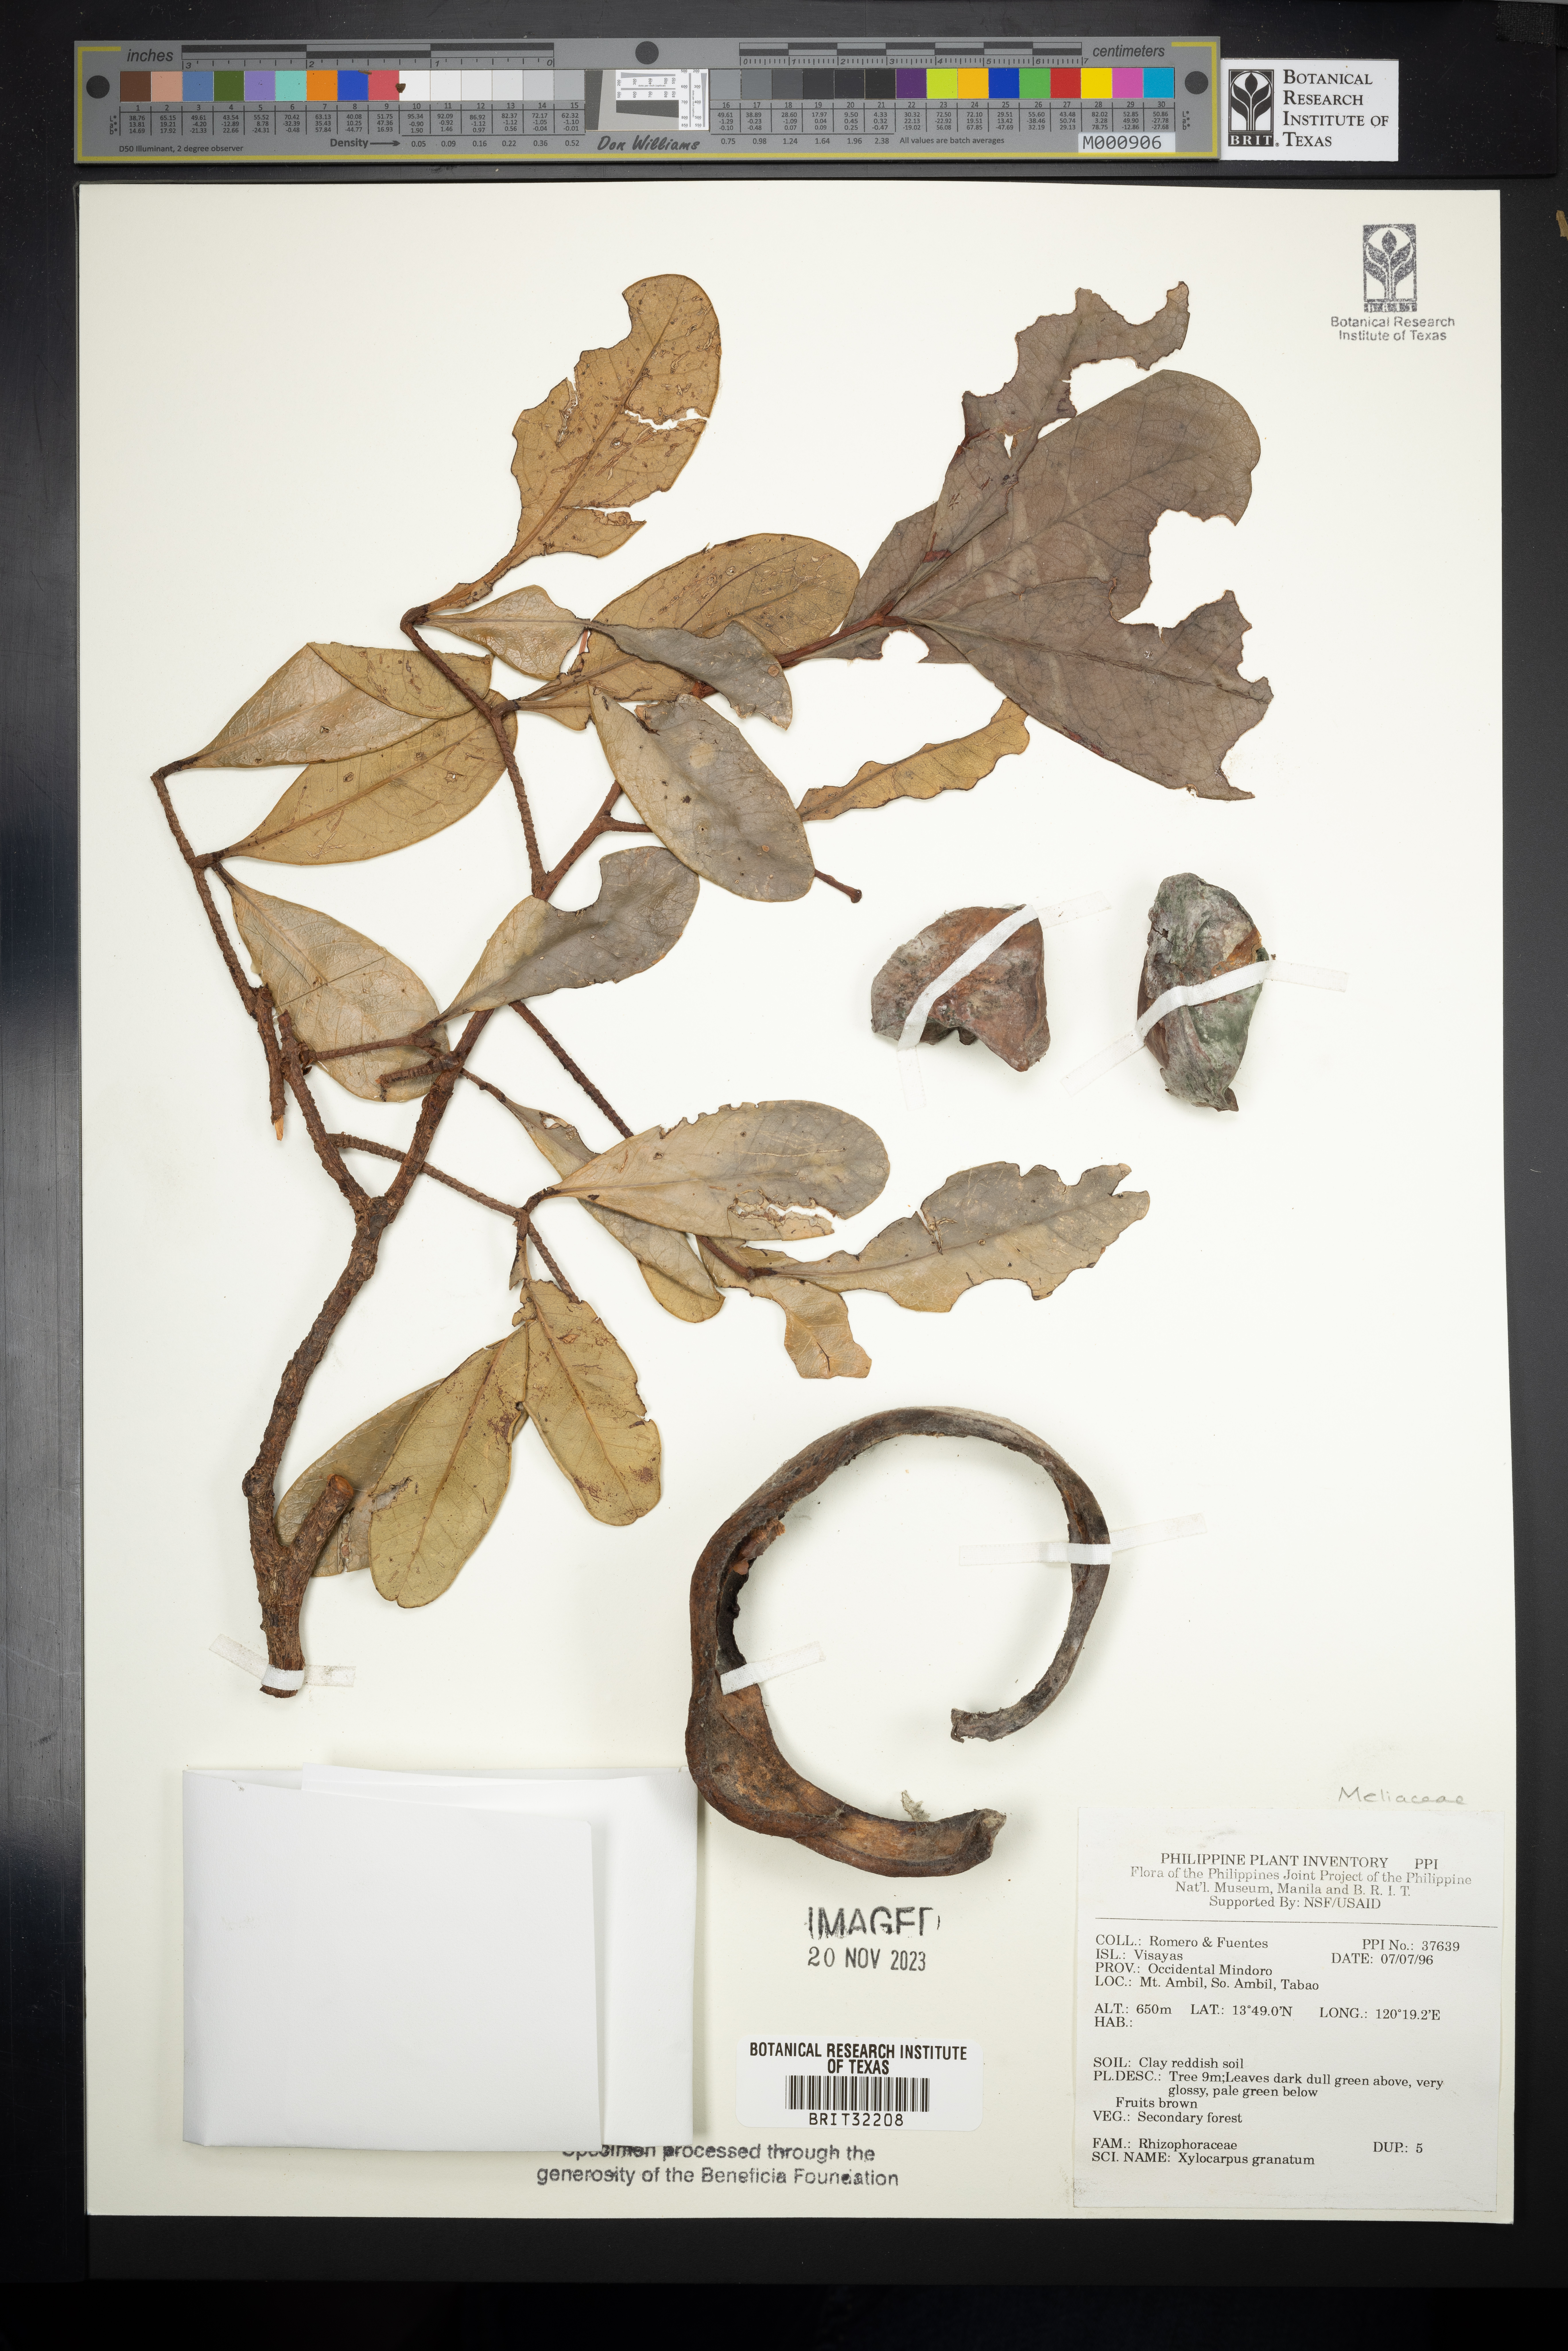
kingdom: Plantae
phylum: Tracheophyta
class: Magnoliopsida
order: Sapindales
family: Meliaceae
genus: Xylocarpus
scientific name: Xylocarpus granatum
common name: Apple mangrove
